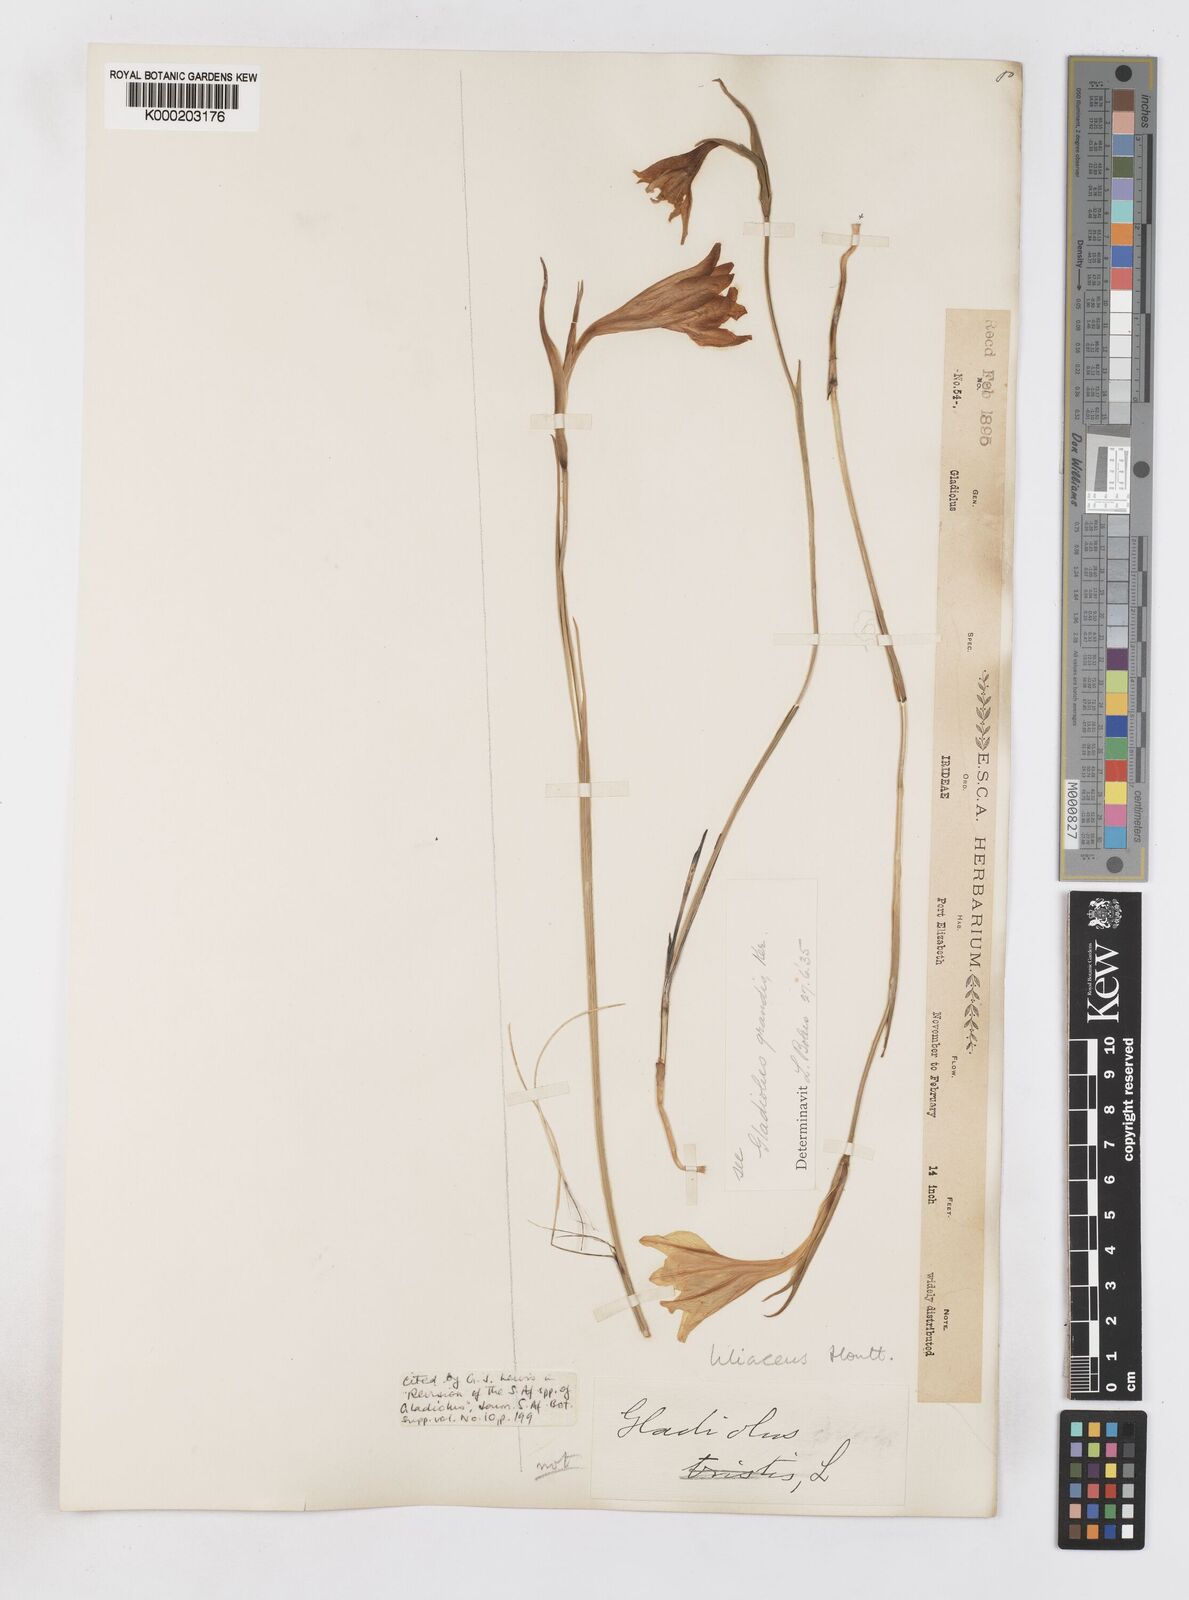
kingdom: Plantae
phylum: Tracheophyta
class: Liliopsida
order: Asparagales
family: Iridaceae
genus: Gladiolus
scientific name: Gladiolus liliaceus
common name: Large brown afrikaner
